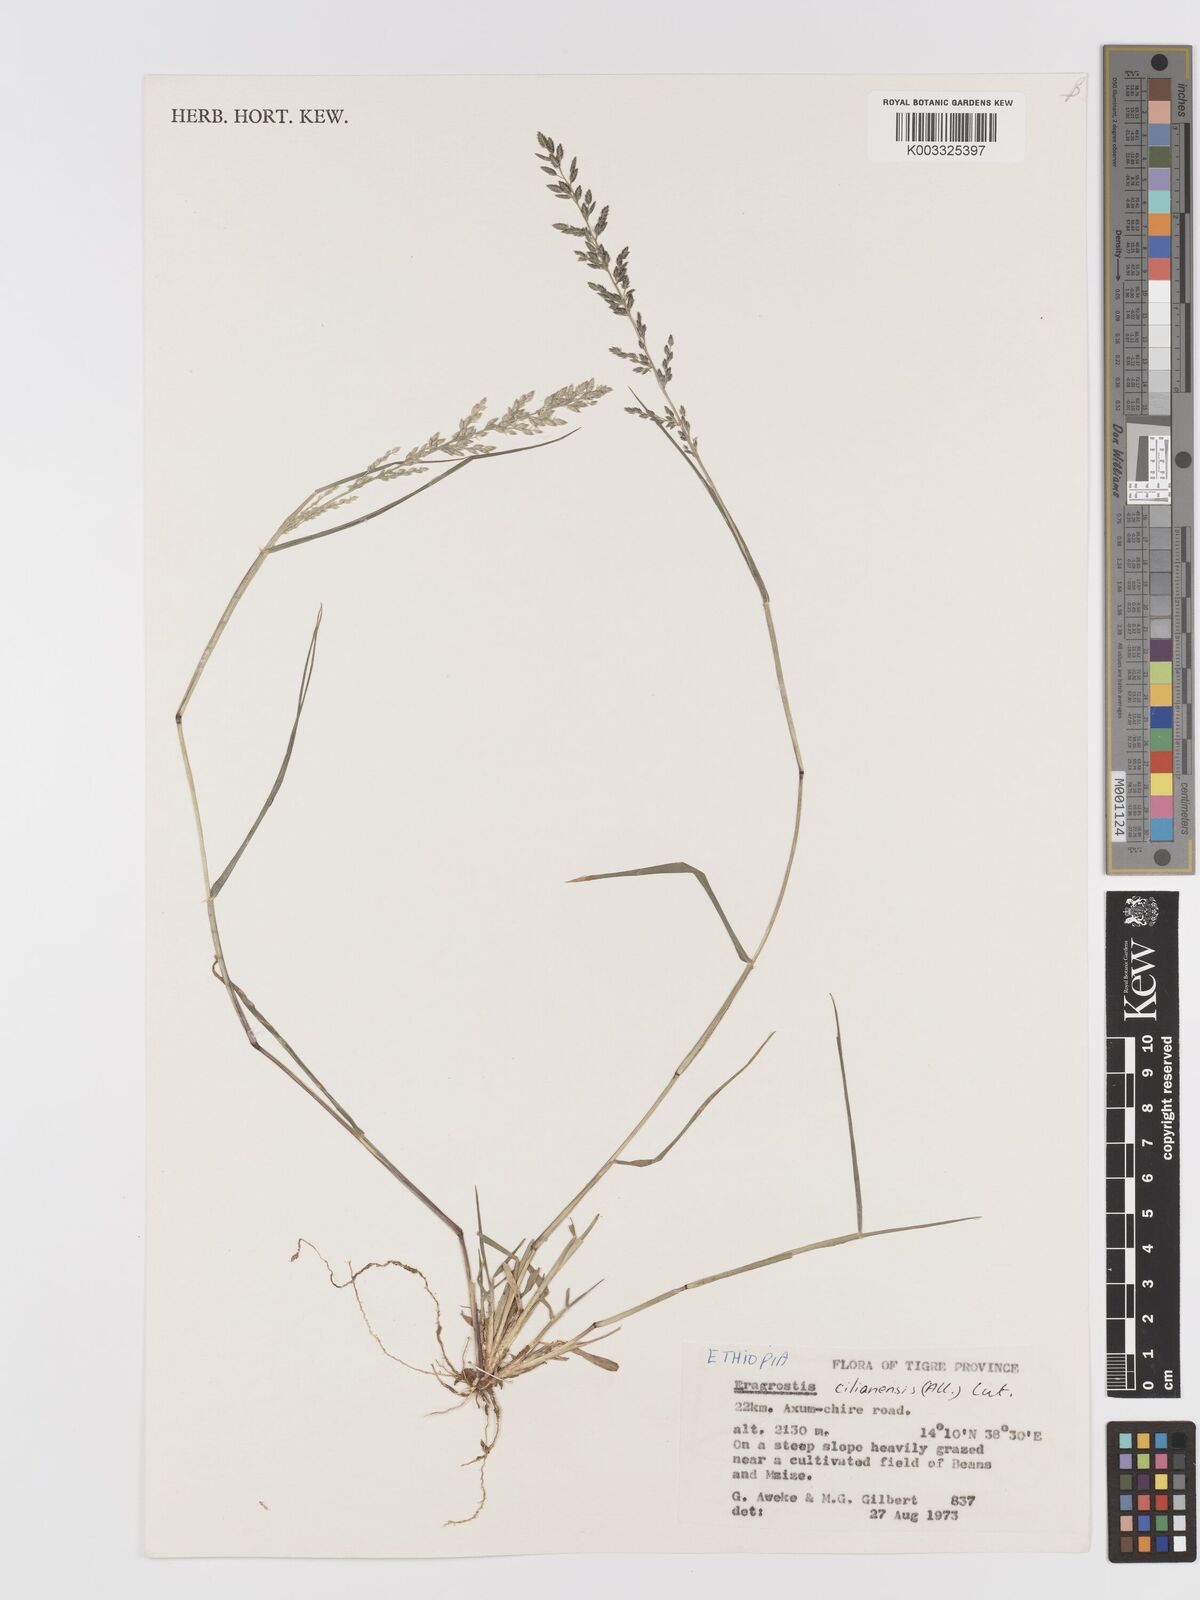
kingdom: Plantae
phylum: Tracheophyta
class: Liliopsida
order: Poales
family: Poaceae
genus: Eragrostis
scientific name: Eragrostis cilianensis
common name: Stinkgrass
